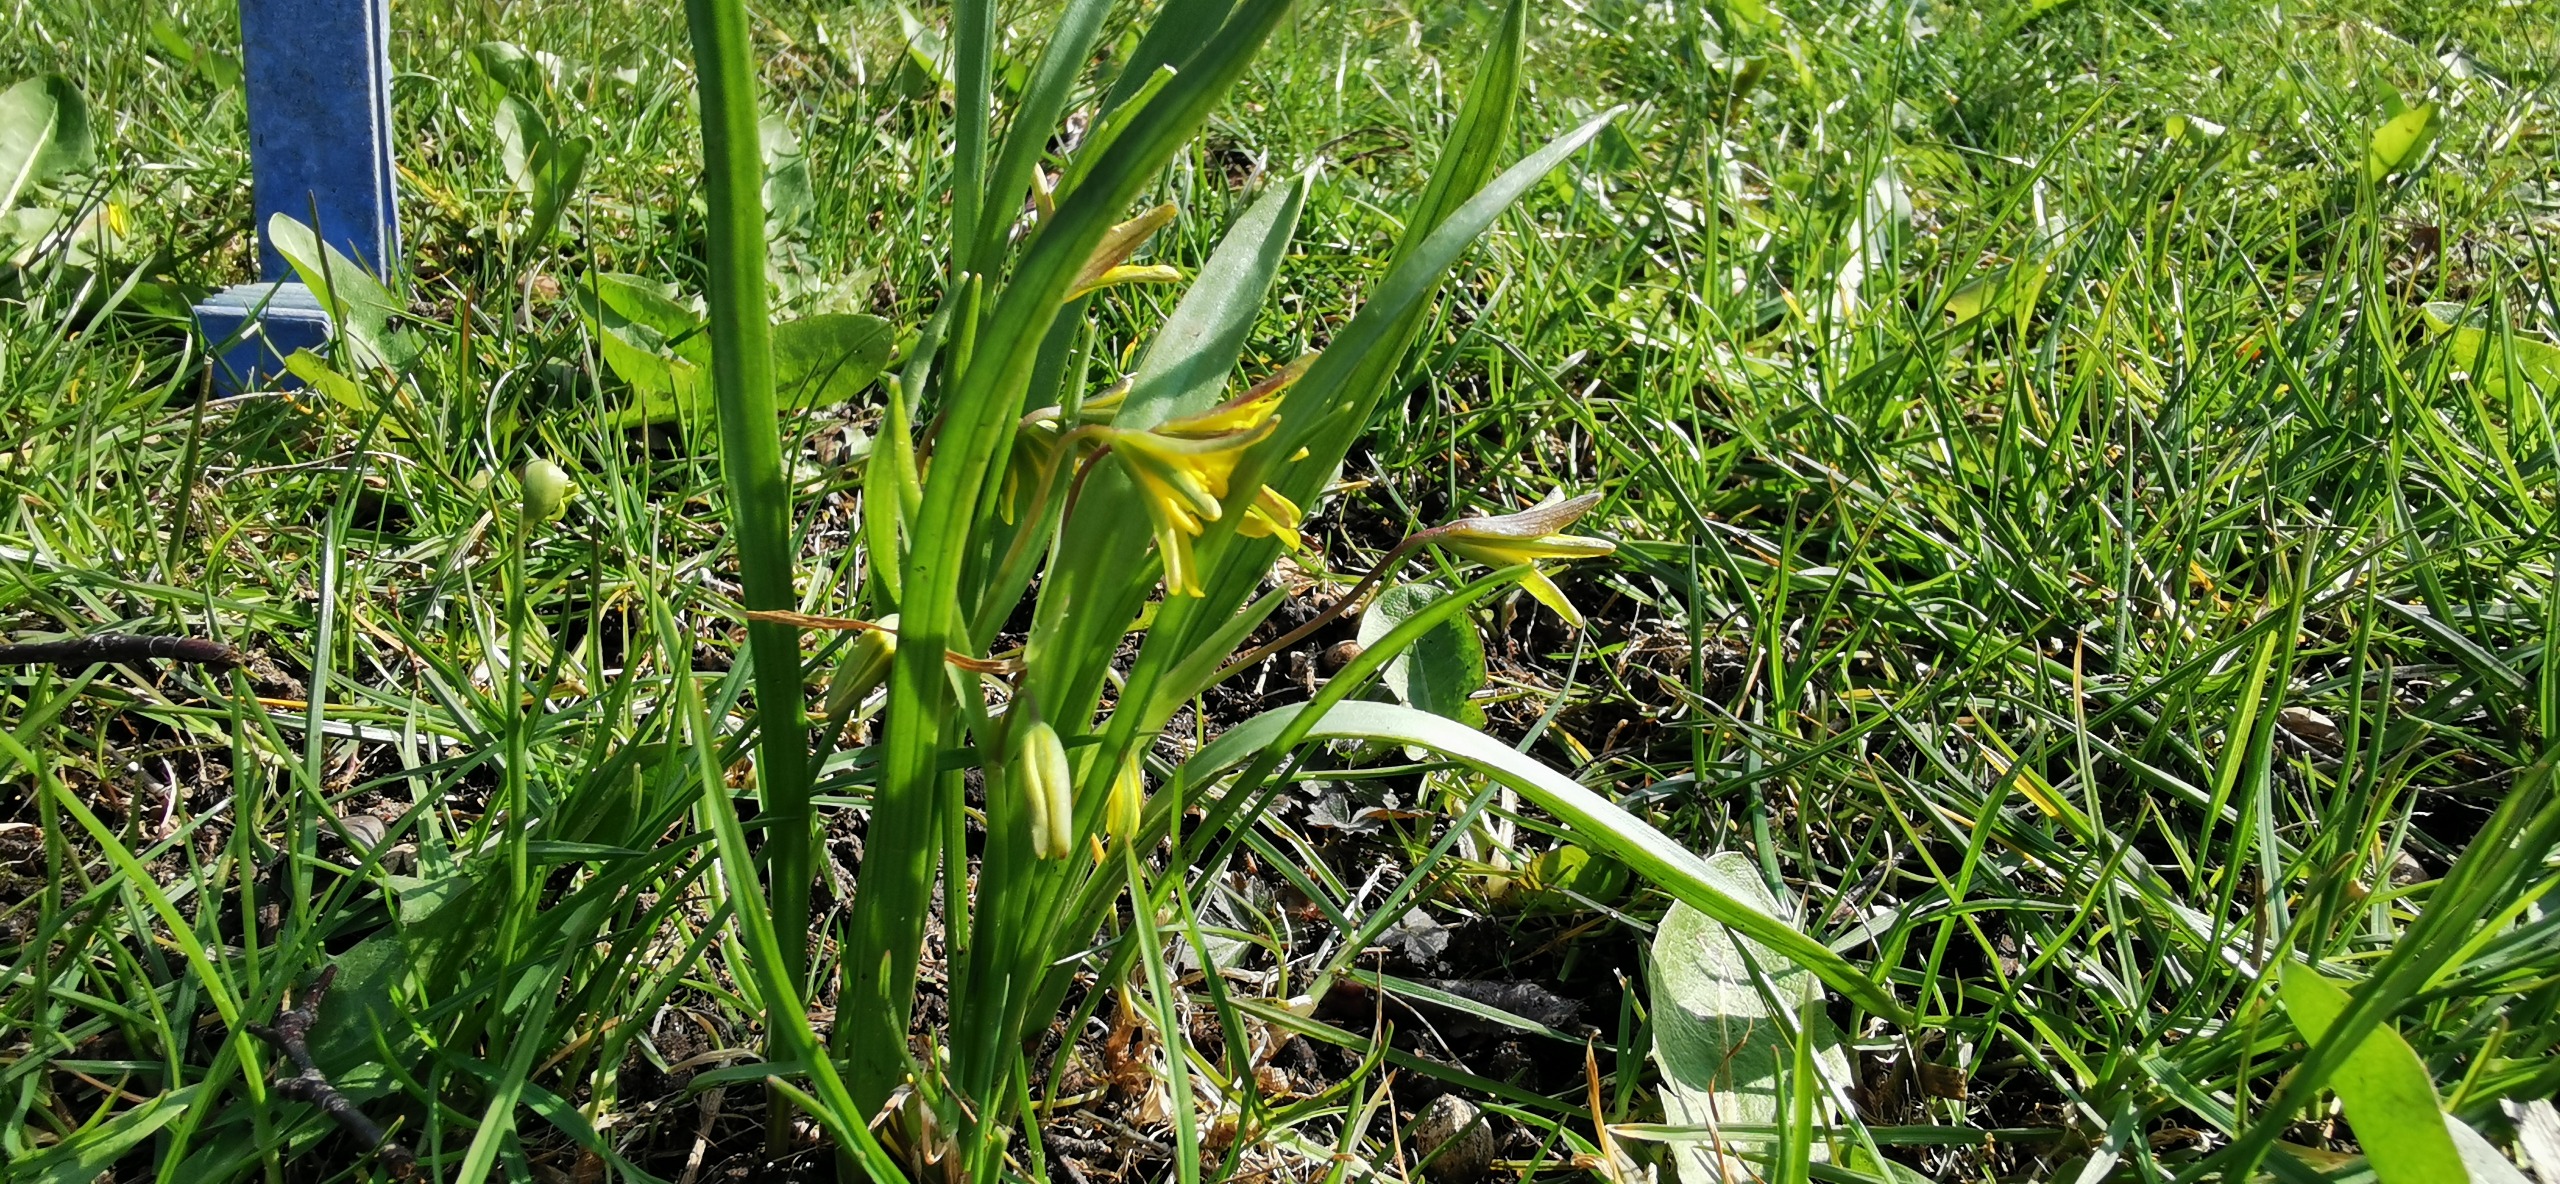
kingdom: Plantae
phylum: Tracheophyta
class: Liliopsida
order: Liliales
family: Liliaceae
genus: Gagea
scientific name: Gagea lutea
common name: Almindelig guldstjerne
